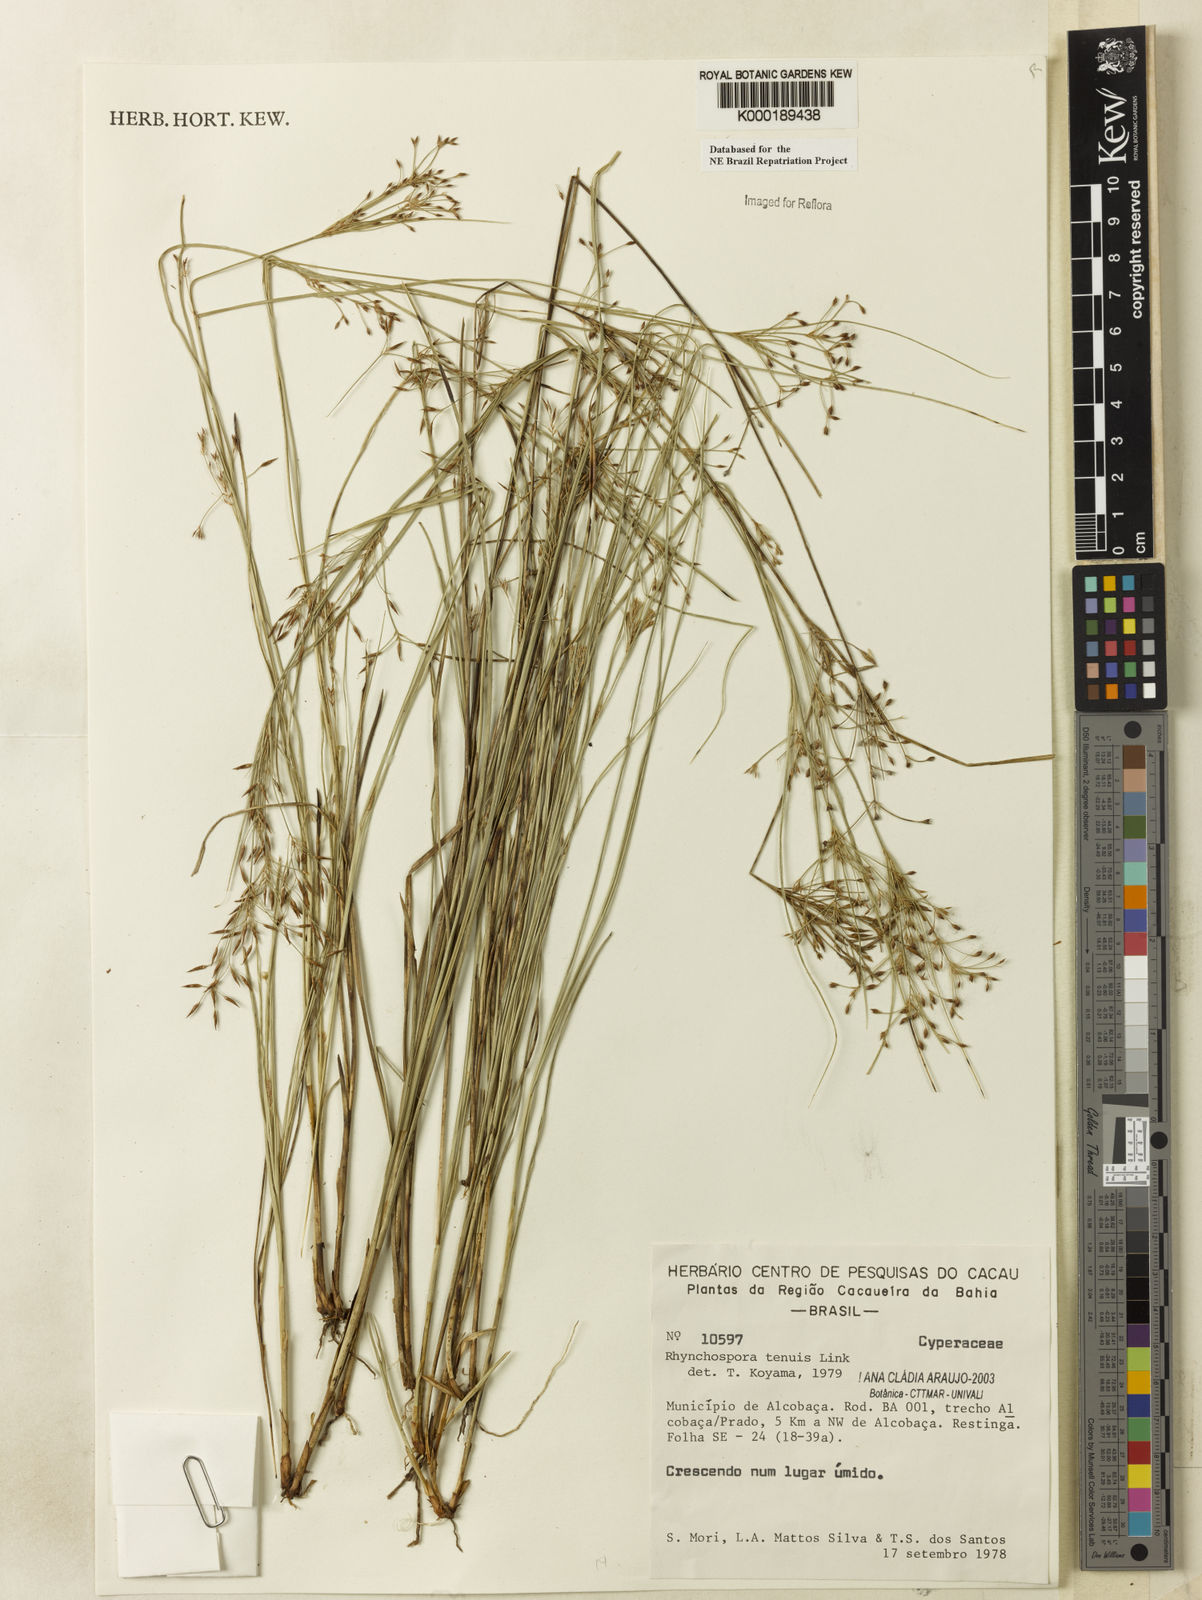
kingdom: Plantae
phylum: Tracheophyta
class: Liliopsida
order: Poales
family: Cyperaceae
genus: Rhynchospora
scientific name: Rhynchospora tenuis
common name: Quill beaksedge
